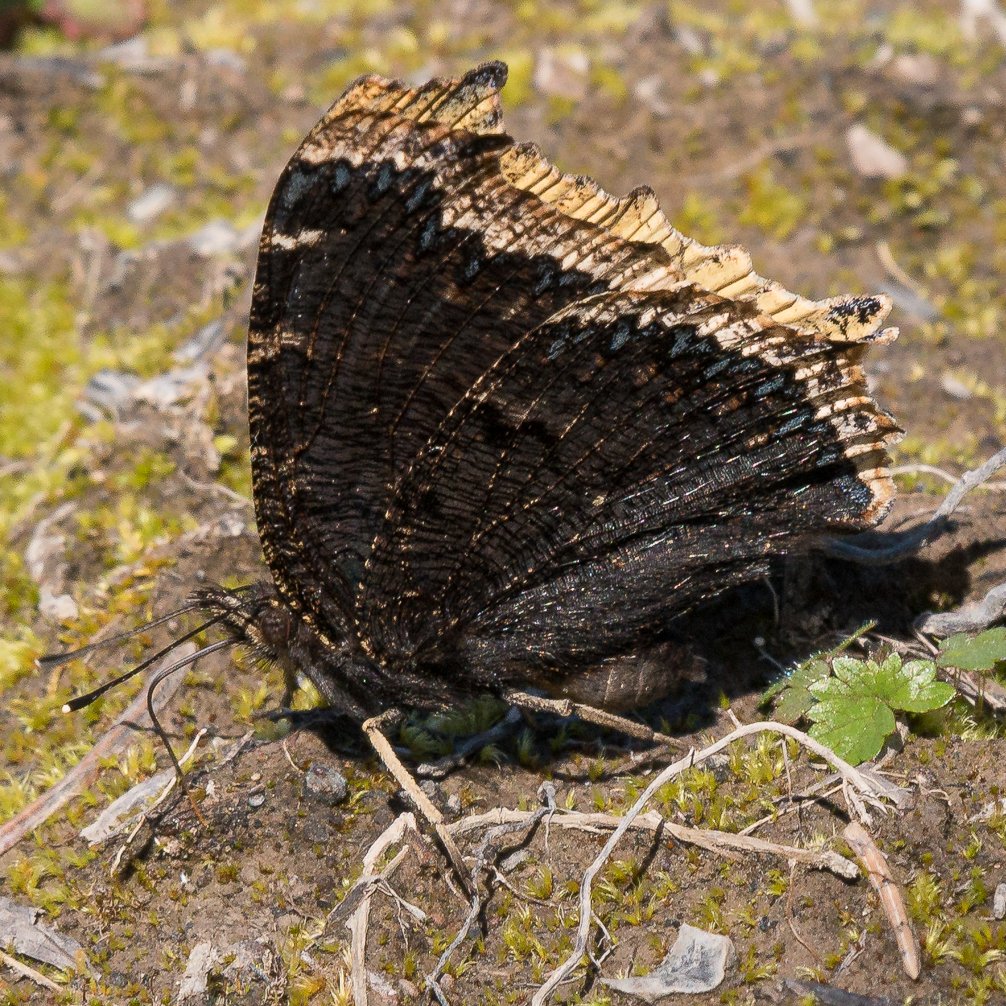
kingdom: Animalia
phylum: Arthropoda
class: Insecta
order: Lepidoptera
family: Nymphalidae
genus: Nymphalis
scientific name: Nymphalis antiopa
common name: Mourning Cloak
